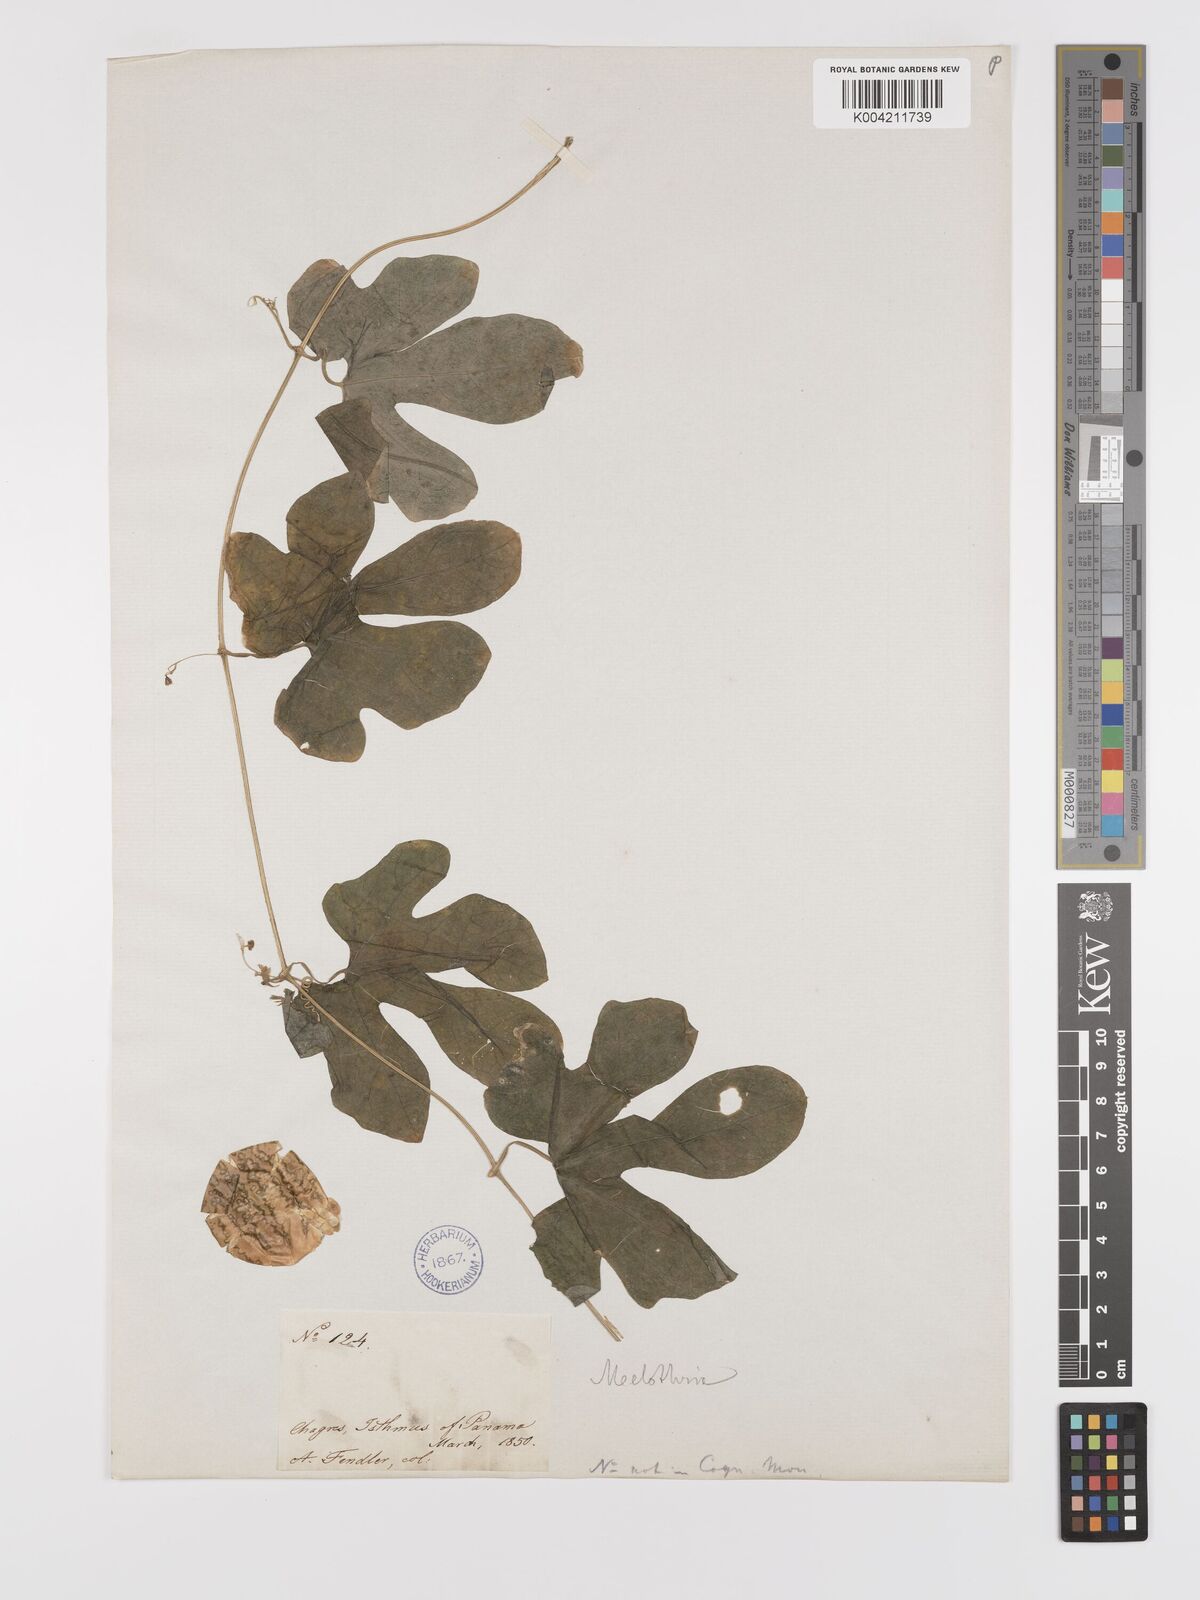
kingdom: Plantae
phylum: Tracheophyta
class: Magnoliopsida
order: Cucurbitales
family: Cucurbitaceae
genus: Melothria
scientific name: Melothria trilobata
